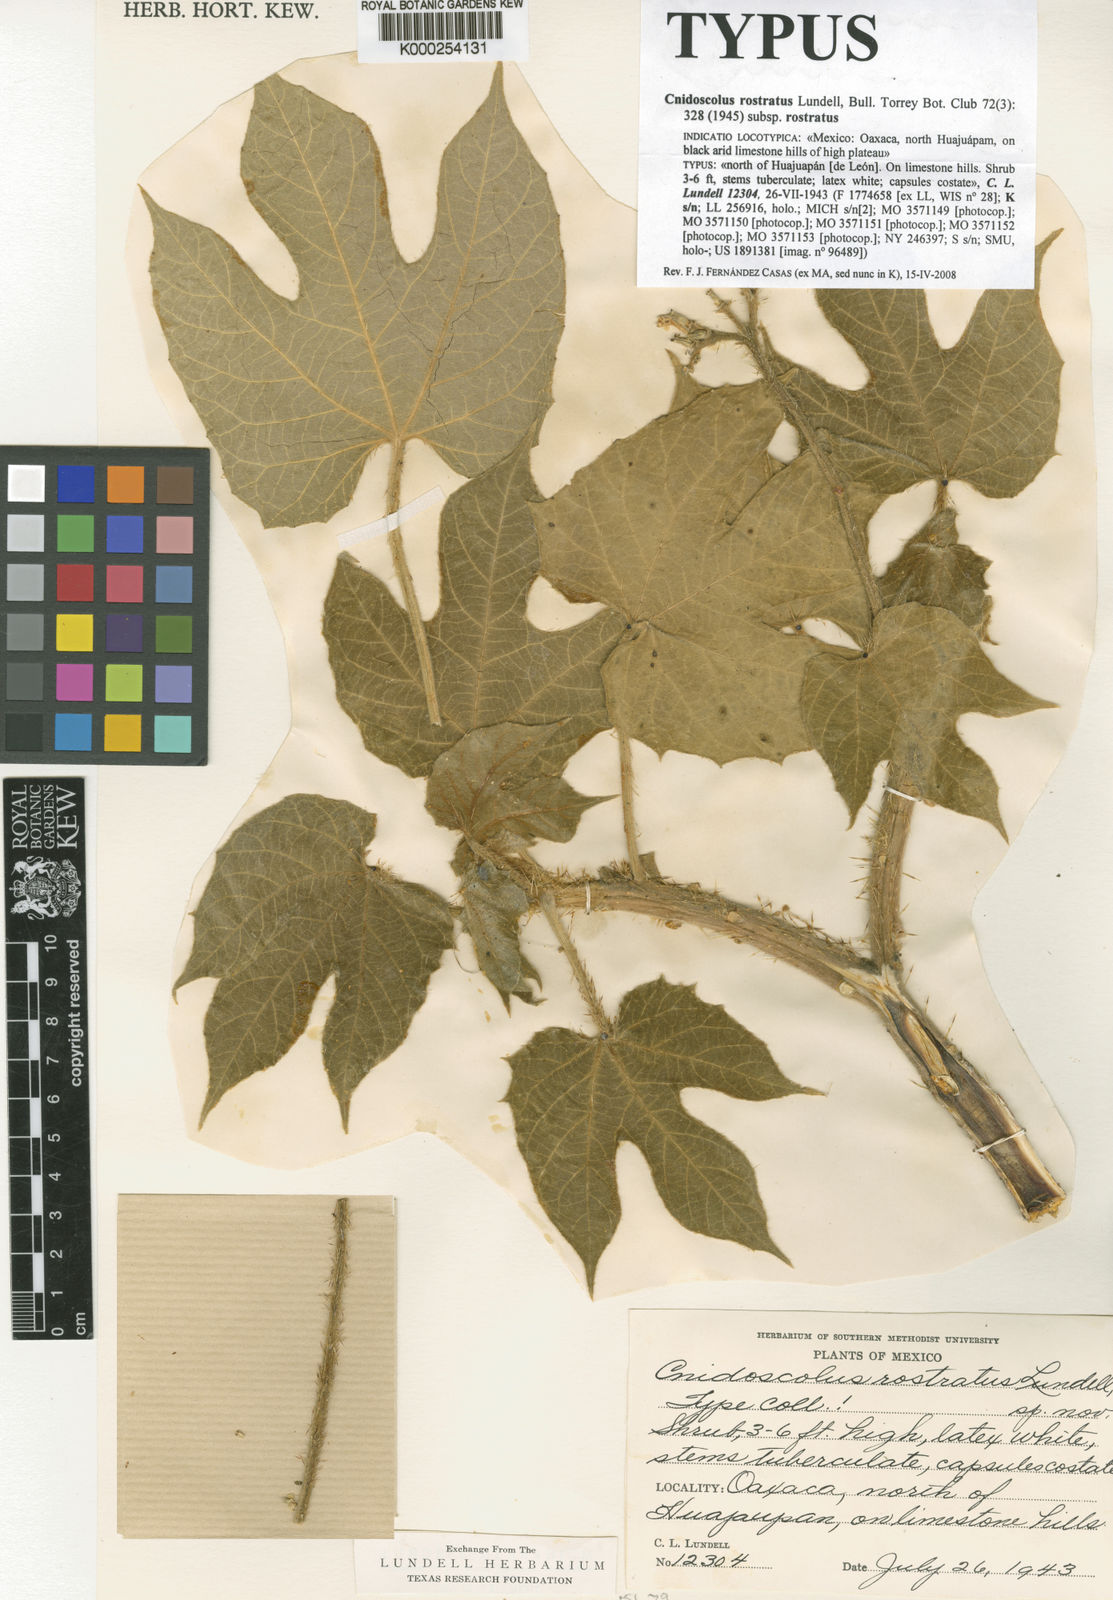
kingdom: Plantae
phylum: Tracheophyta
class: Magnoliopsida
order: Malpighiales
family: Euphorbiaceae
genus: Cnidoscolus
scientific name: Cnidoscolus rostratus
